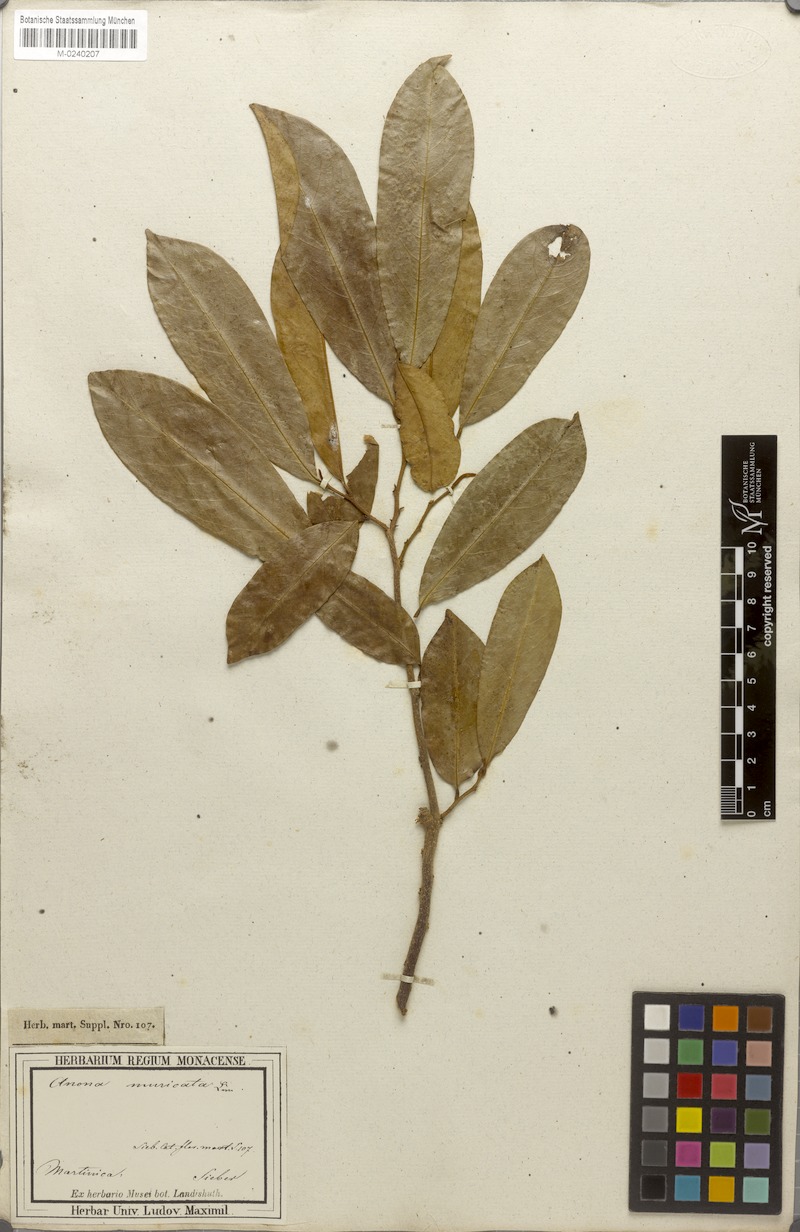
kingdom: Plantae
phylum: Tracheophyta
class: Magnoliopsida
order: Magnoliales
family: Annonaceae
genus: Annona
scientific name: Annona muricata
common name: Soursop
